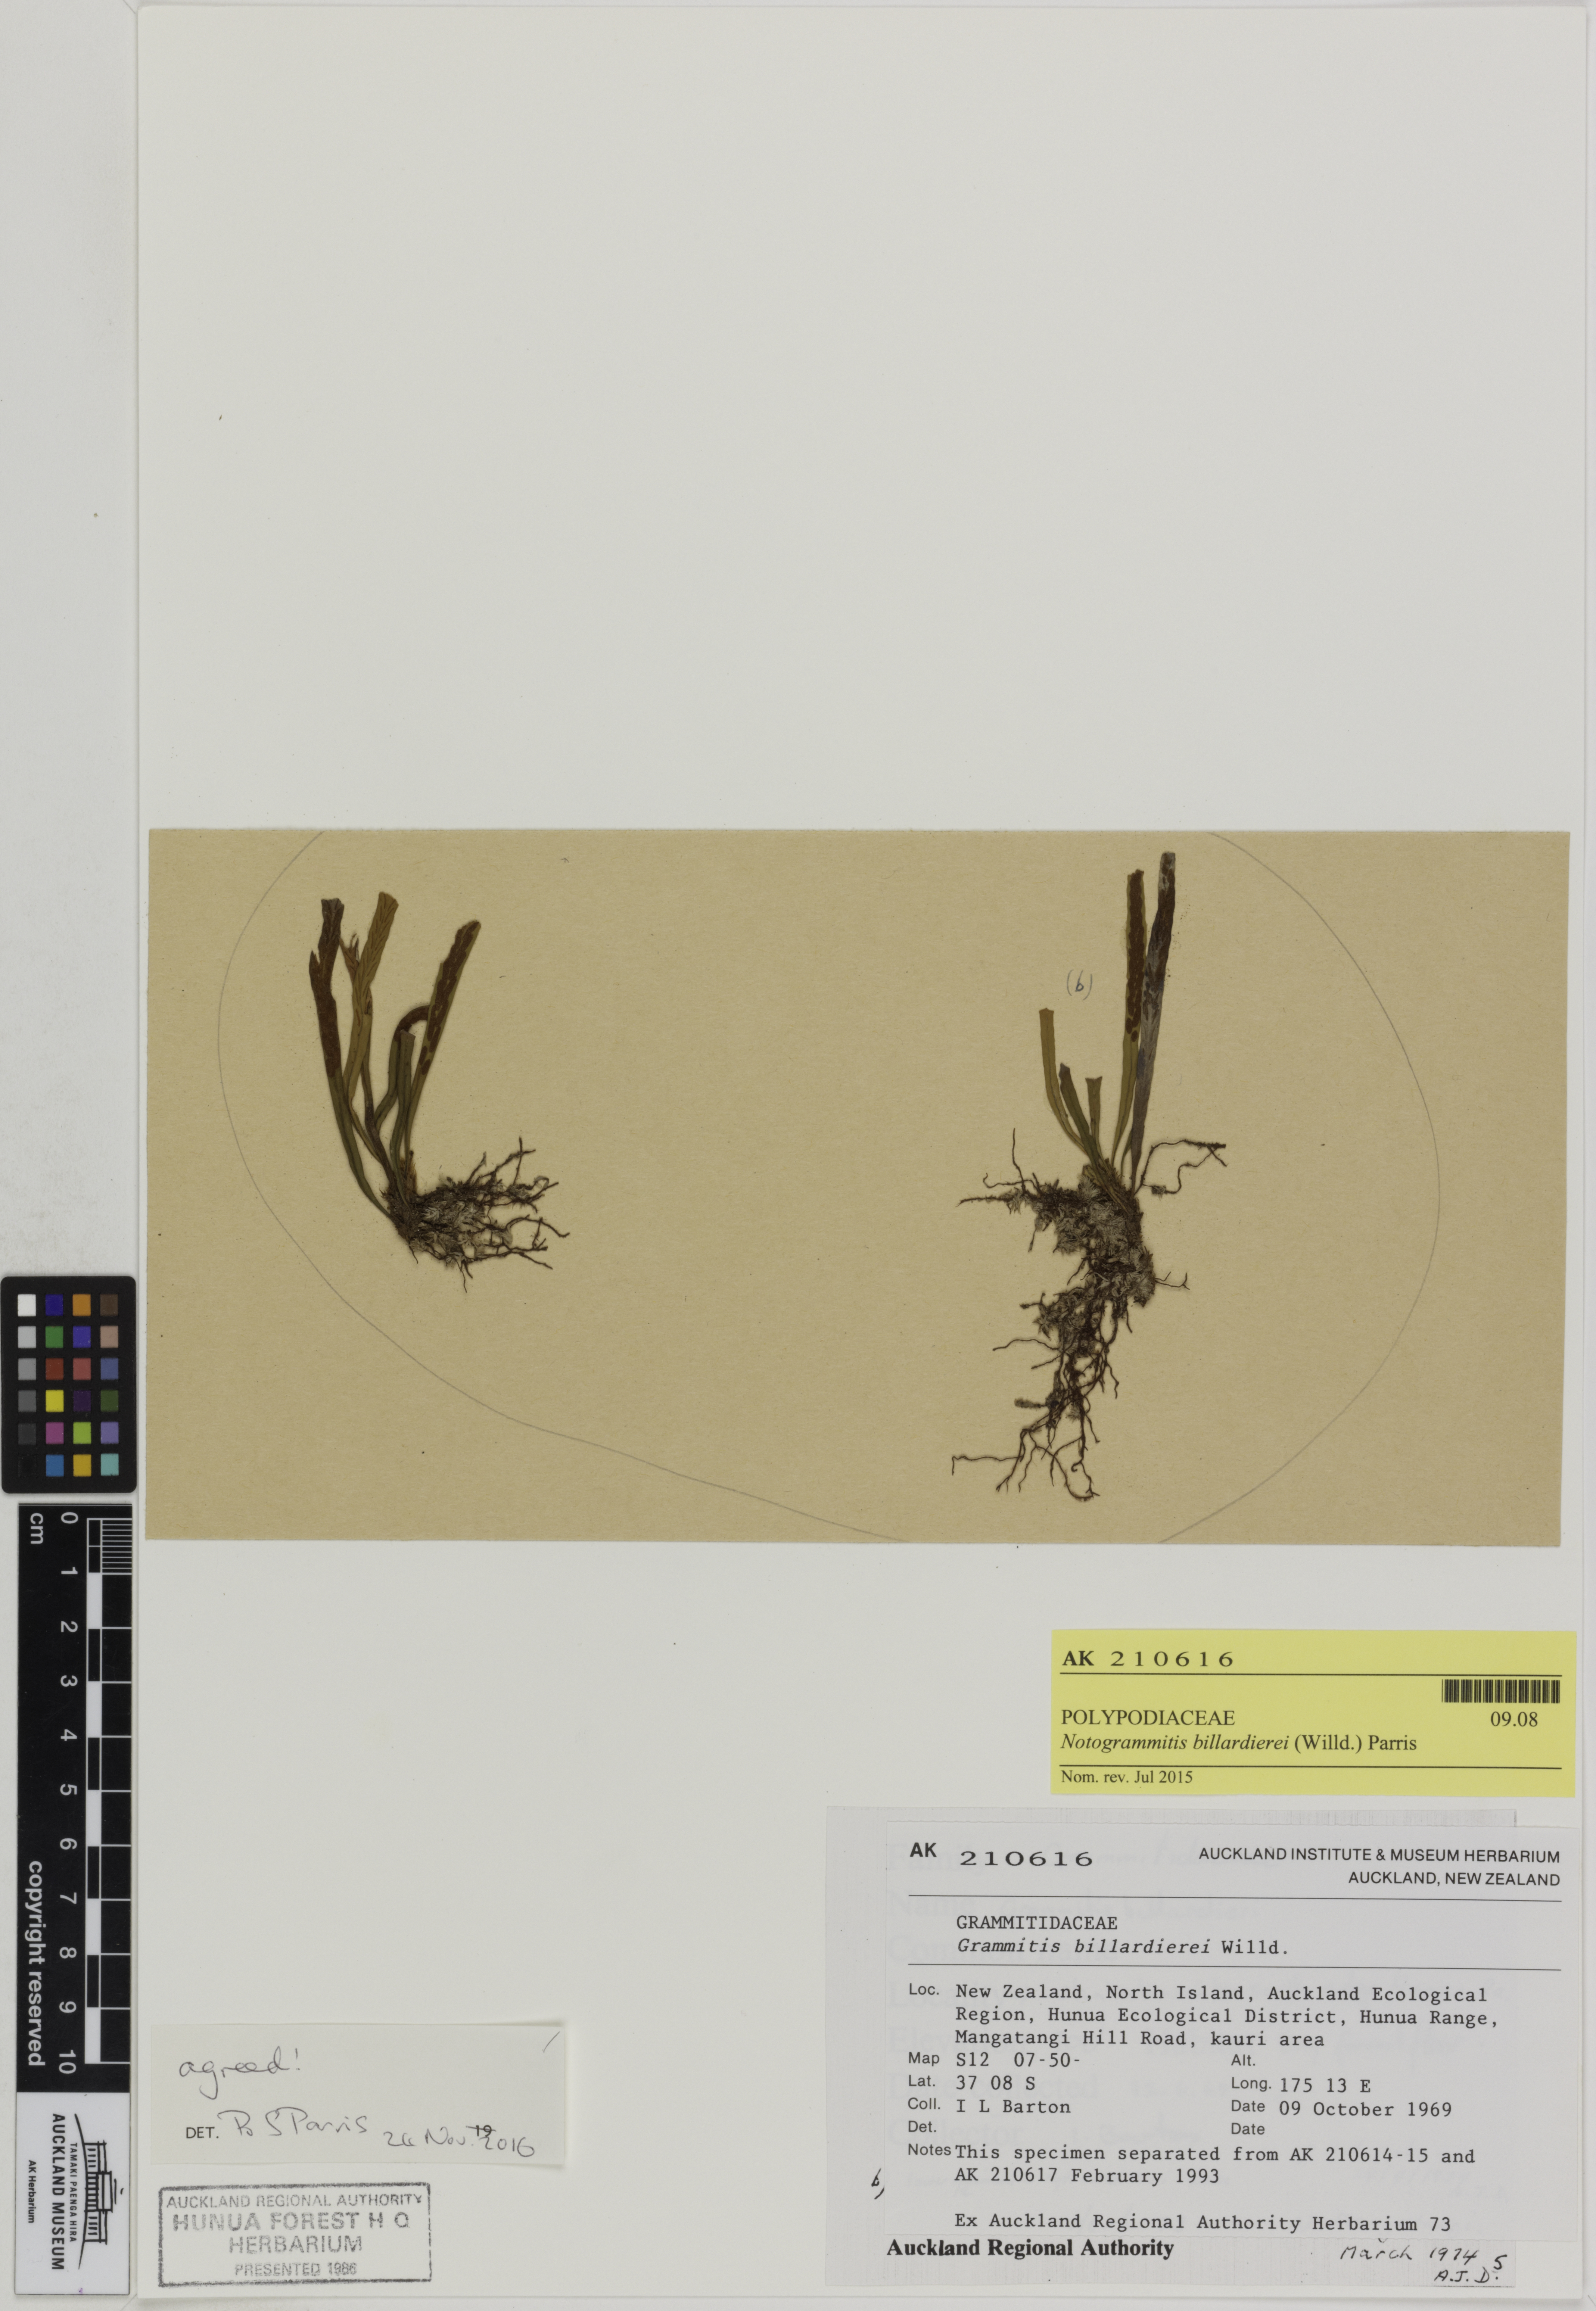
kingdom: Plantae
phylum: Tracheophyta
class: Polypodiopsida
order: Polypodiales
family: Polypodiaceae
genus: Notogrammitis
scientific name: Notogrammitis billardierei
